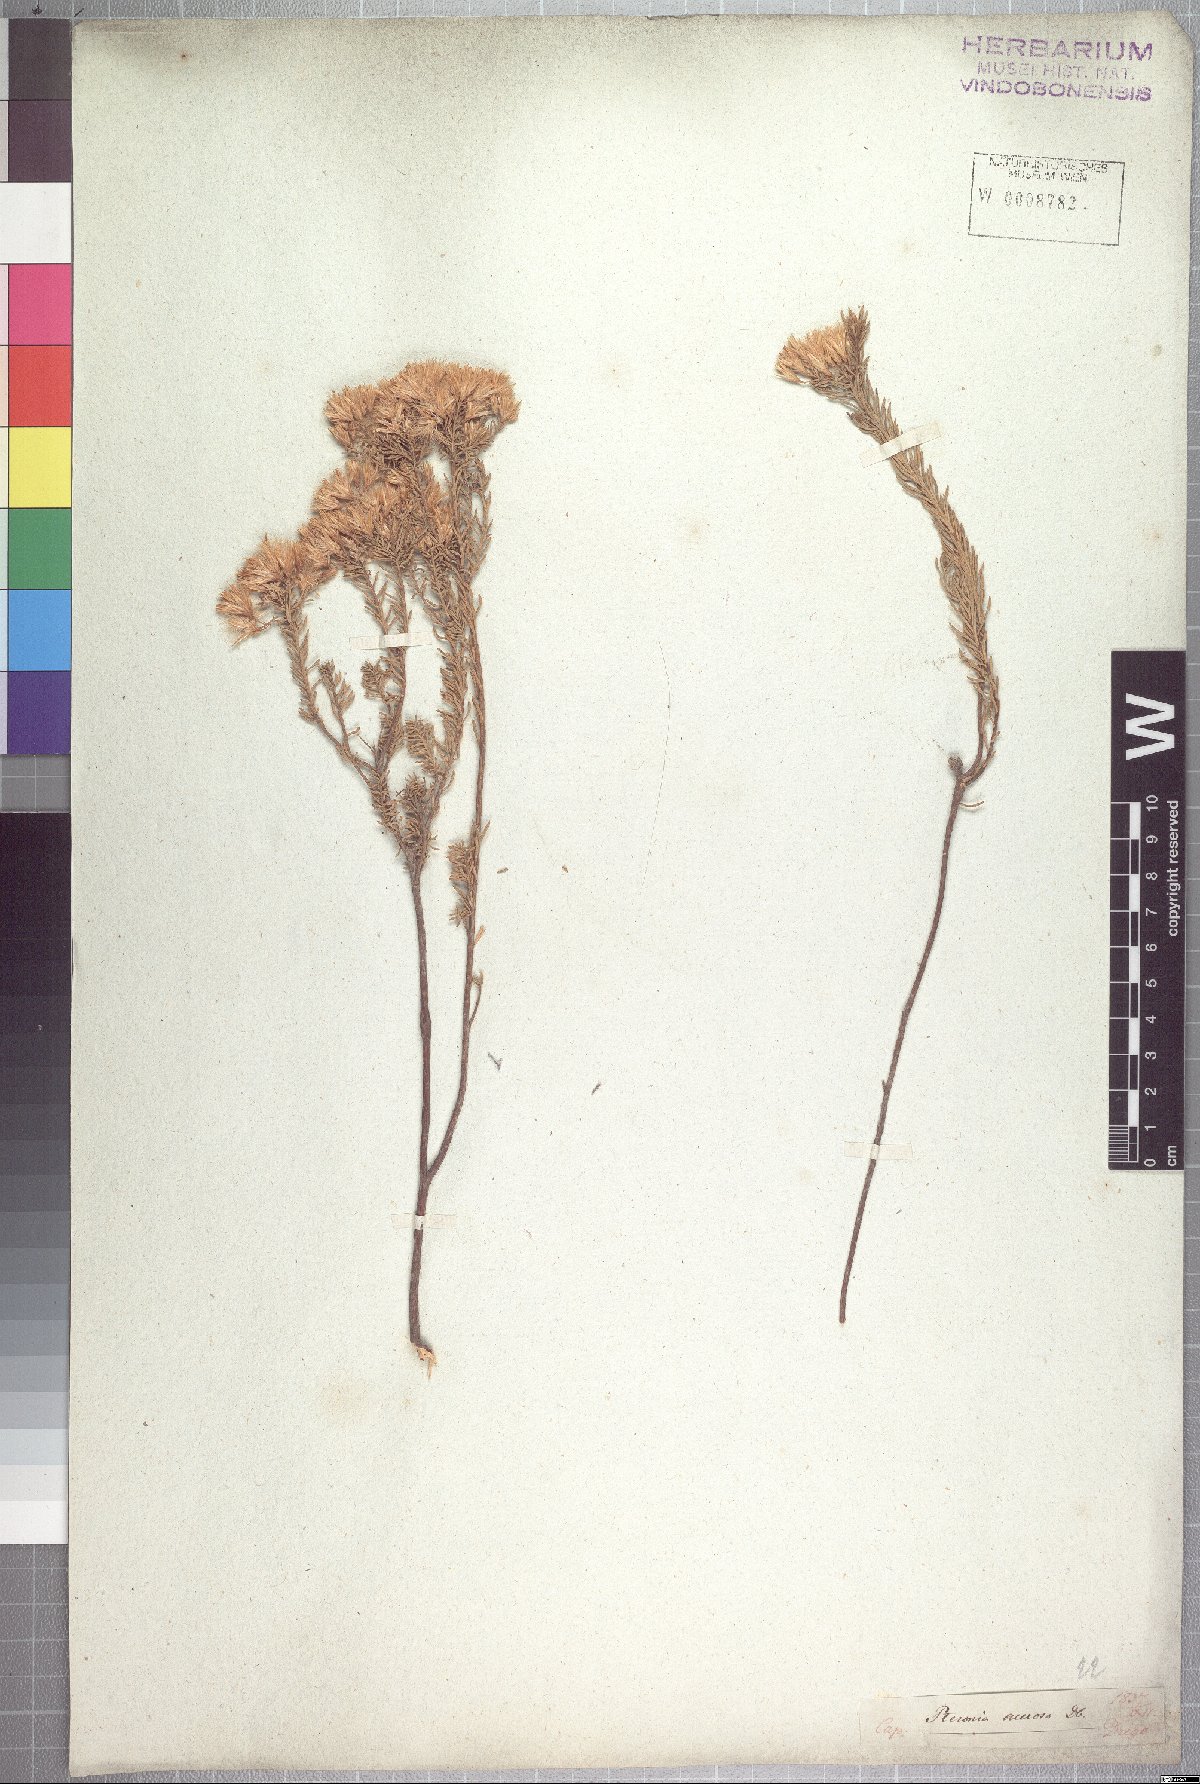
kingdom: Plantae
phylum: Tracheophyta
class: Magnoliopsida
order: Asterales
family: Asteraceae
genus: Pteronia
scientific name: Pteronia teretifolia
